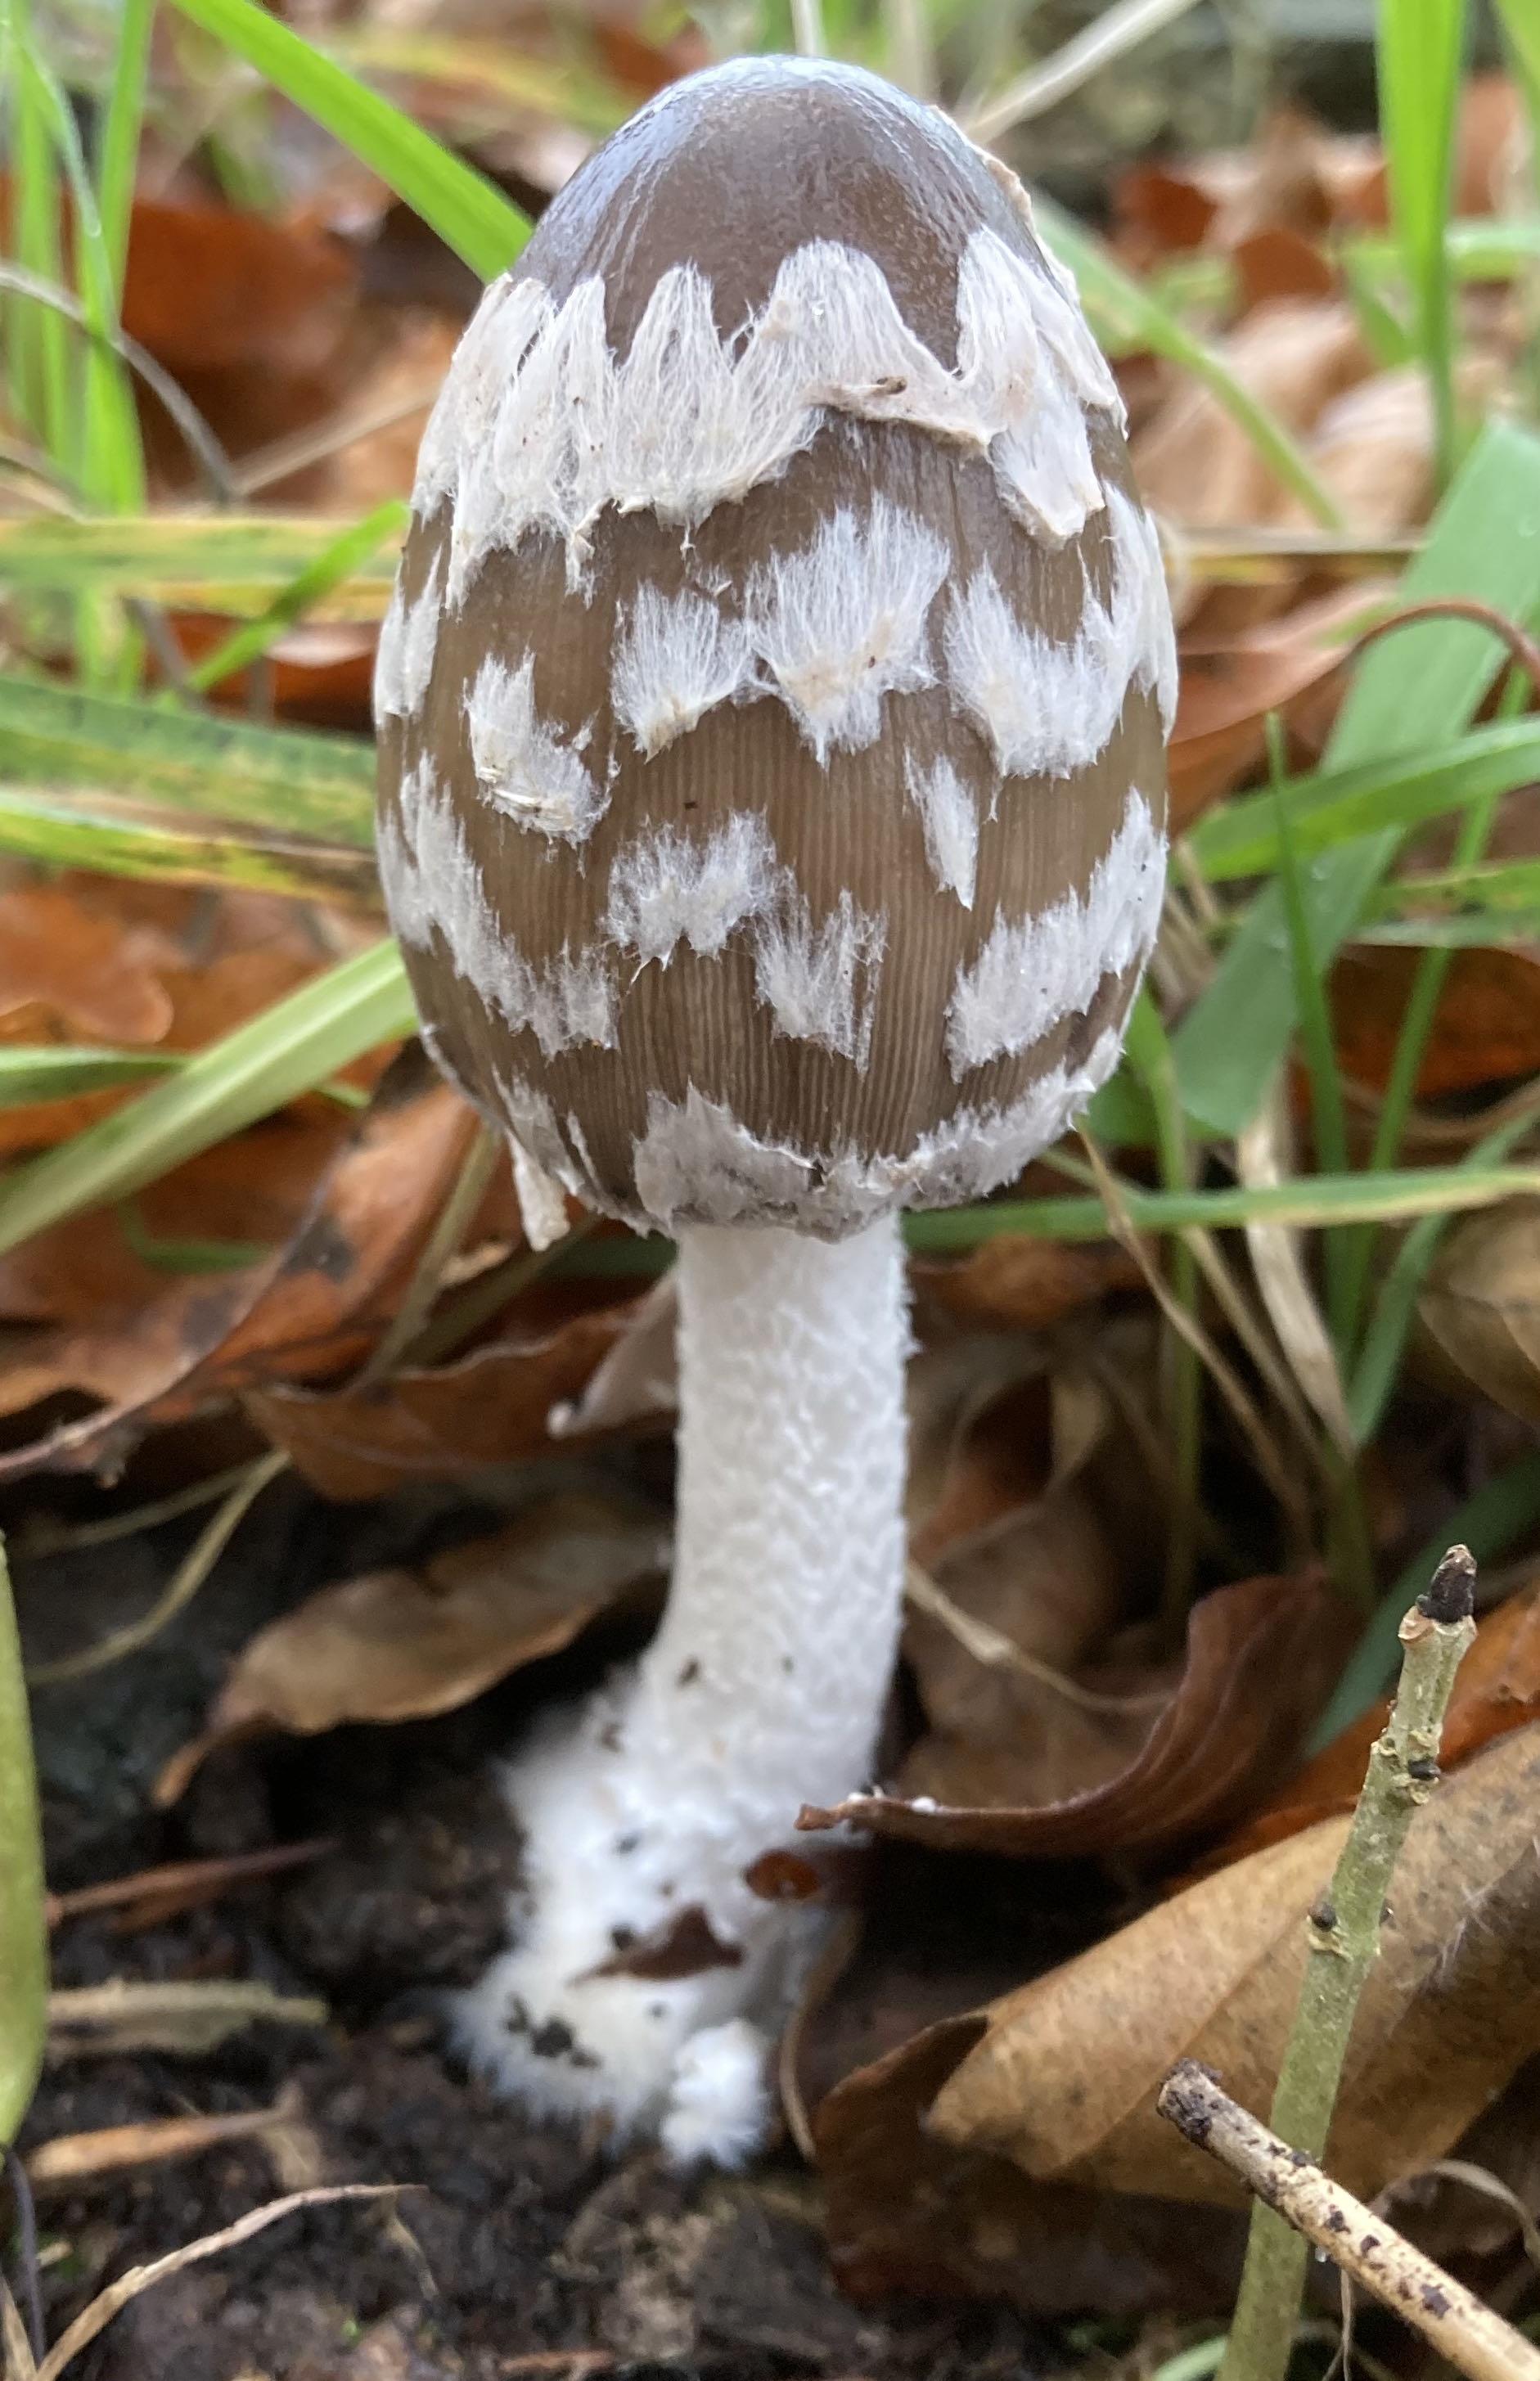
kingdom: Fungi
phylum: Basidiomycota
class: Agaricomycetes
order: Agaricales
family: Psathyrellaceae
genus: Coprinopsis
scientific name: Coprinopsis picacea
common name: skade-blækhat
